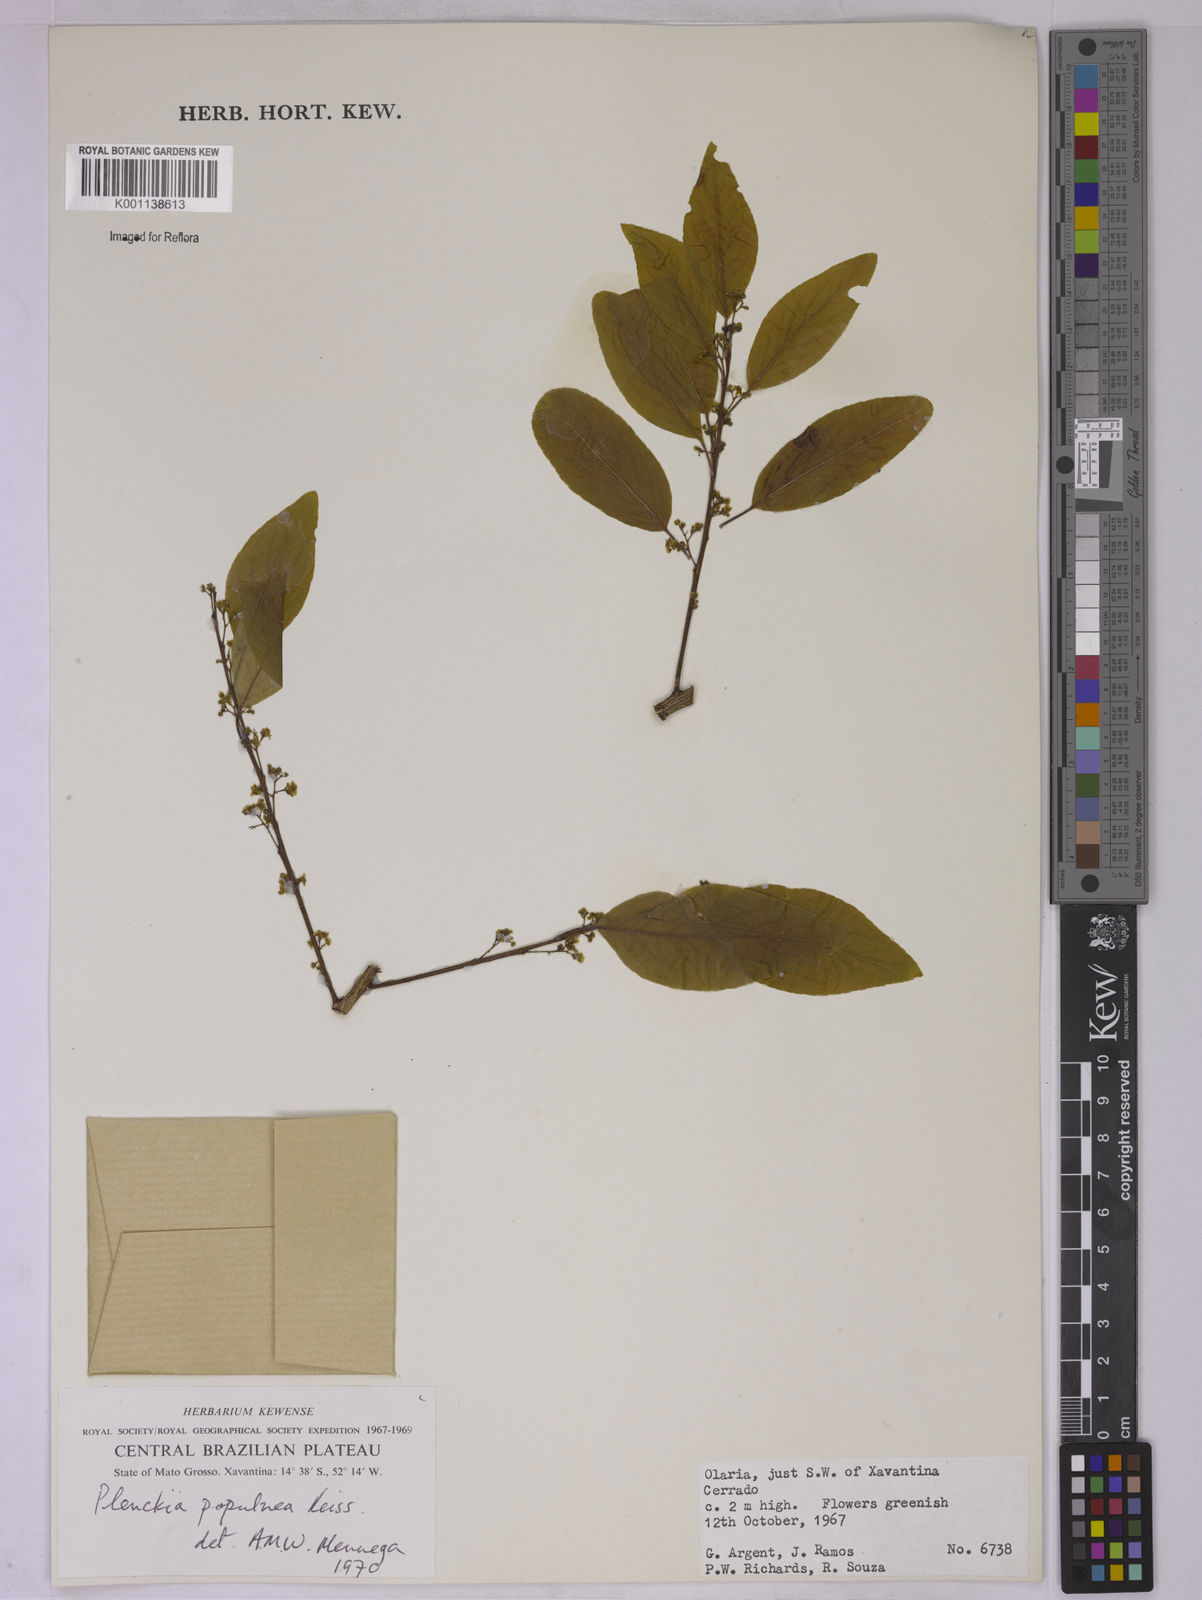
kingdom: Plantae
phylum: Tracheophyta
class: Magnoliopsida
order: Celastrales
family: Celastraceae
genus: Plenckia
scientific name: Plenckia populnea
